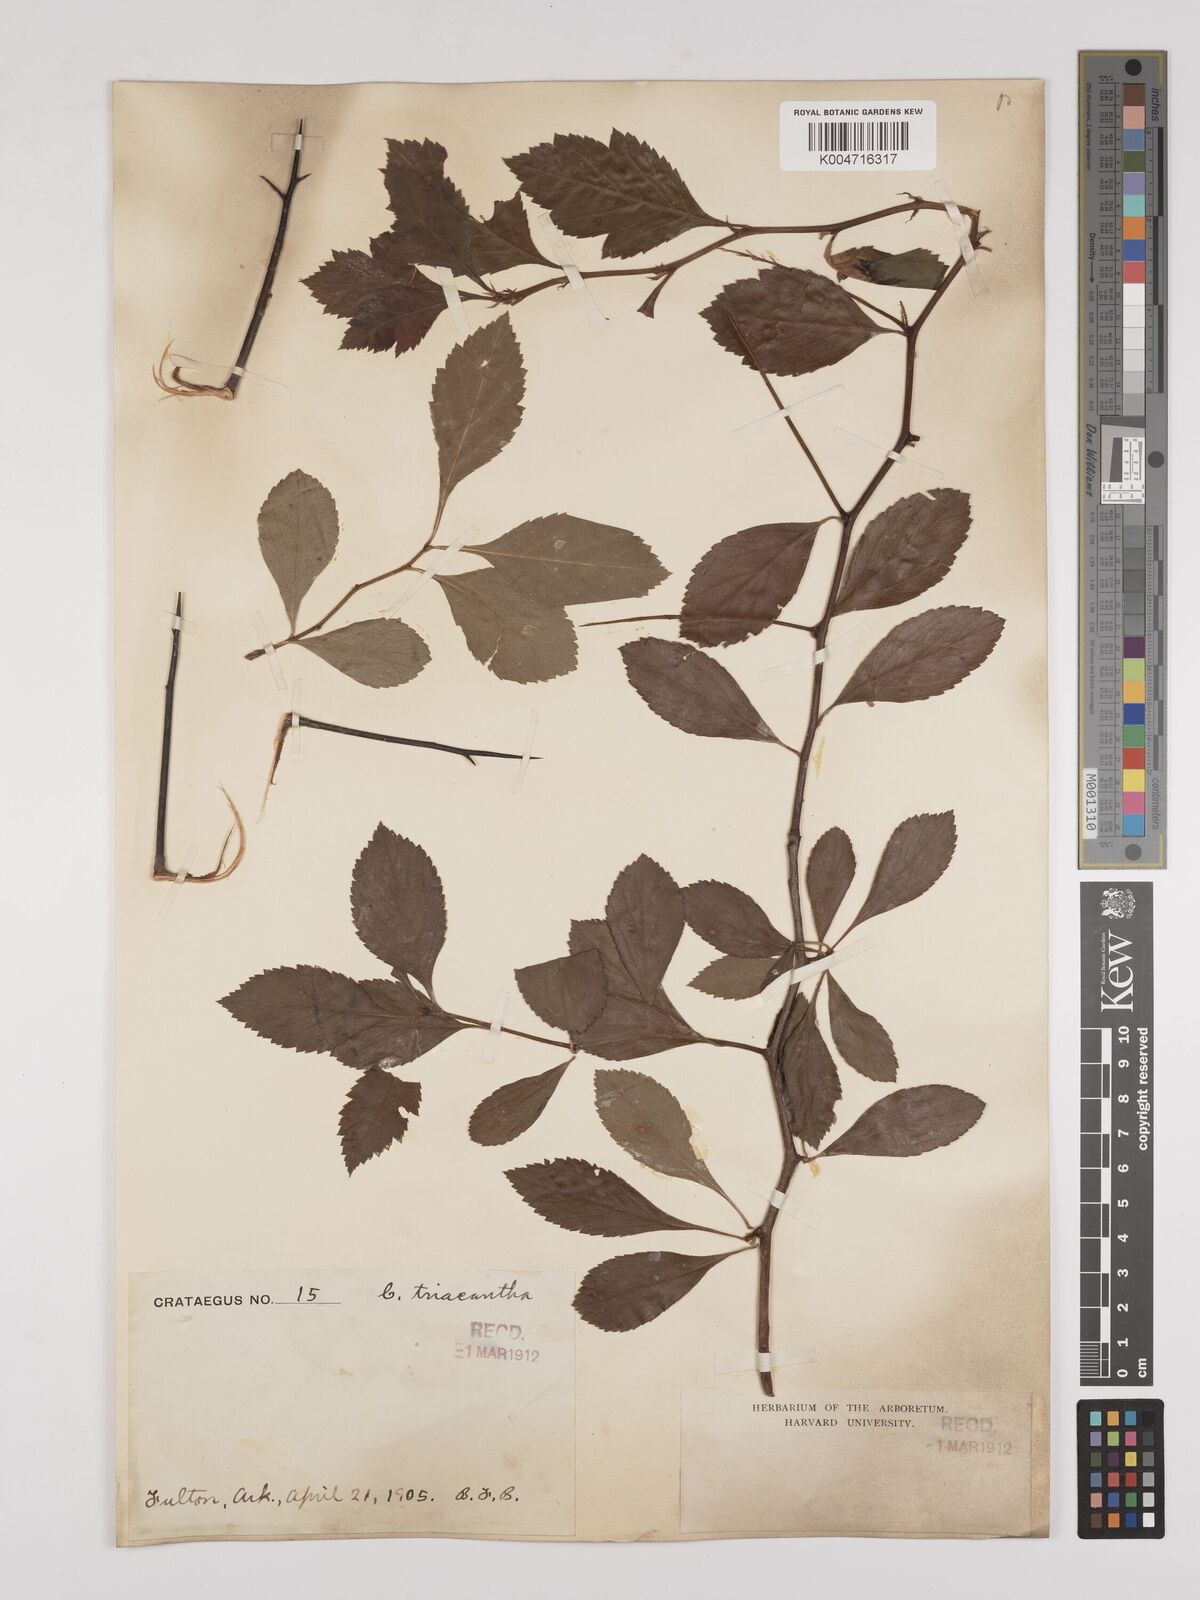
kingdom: Plantae
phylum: Tracheophyta
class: Magnoliopsida
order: Rosales
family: Rosaceae
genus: Crataegus
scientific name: Crataegus
